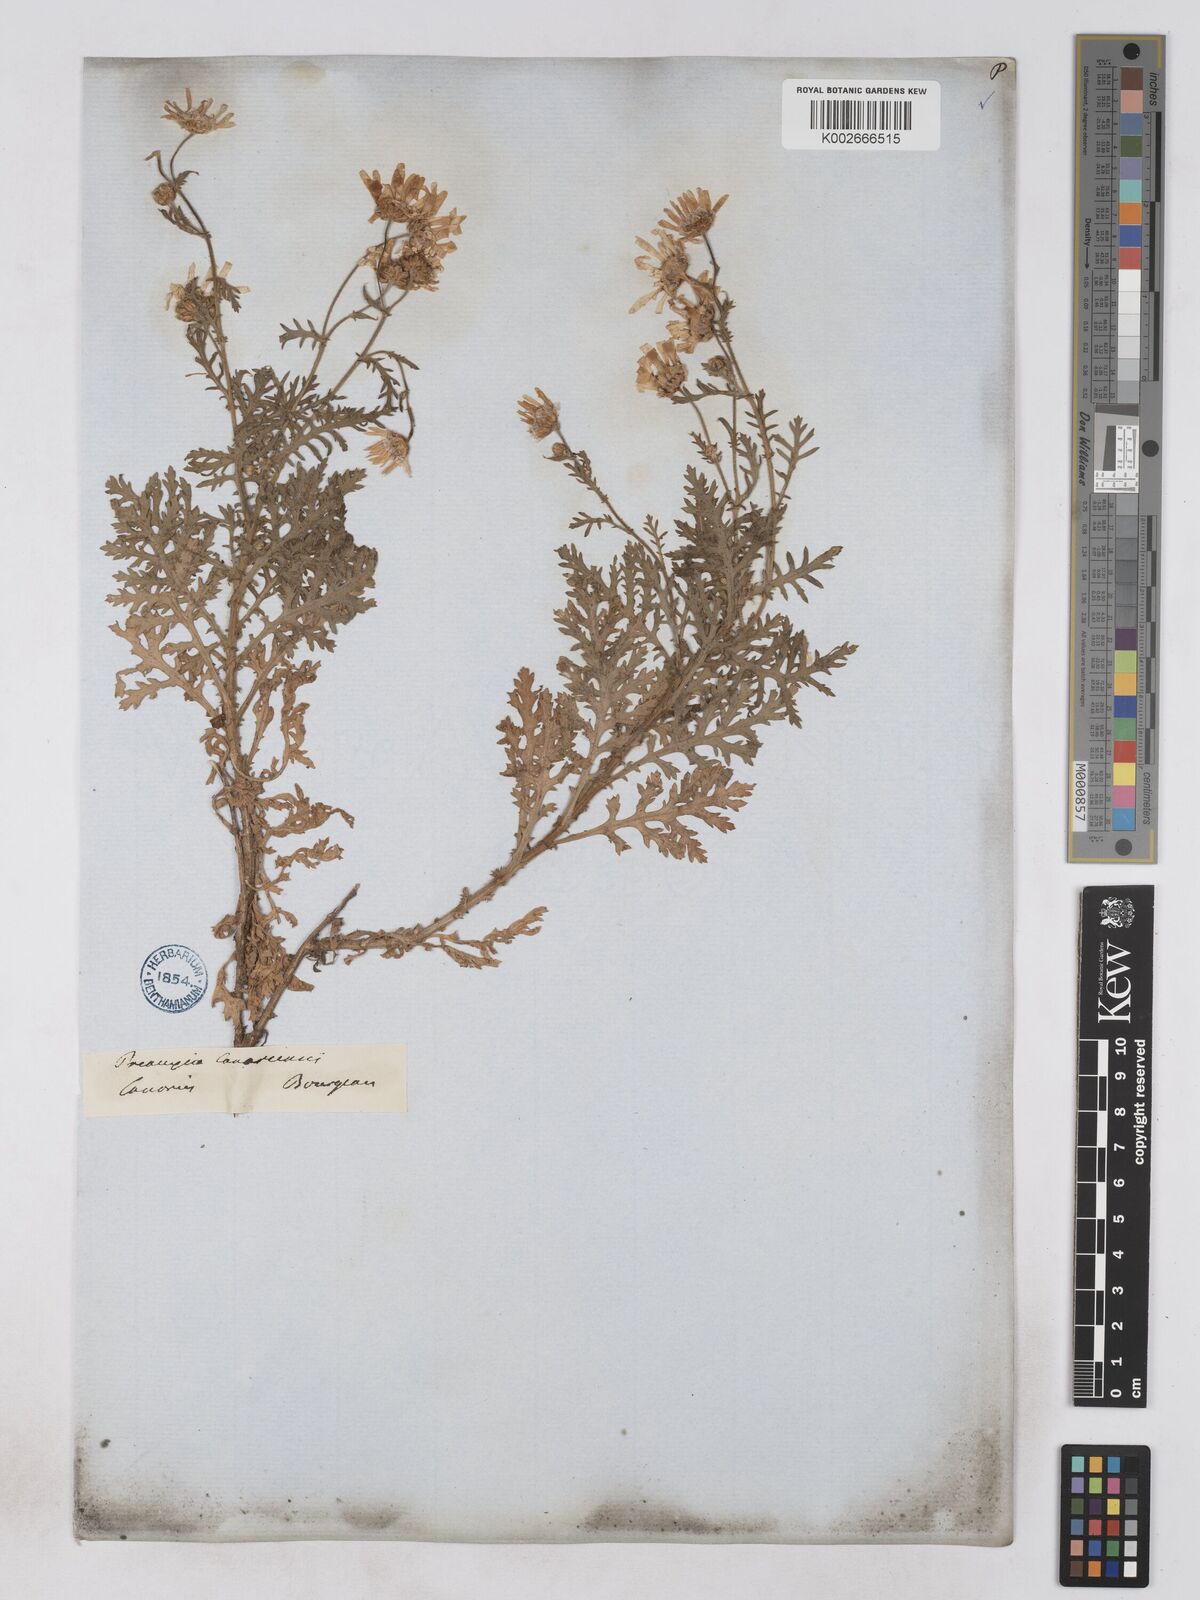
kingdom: Plantae
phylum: Tracheophyta
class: Magnoliopsida
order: Asterales
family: Asteraceae
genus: Argyranthemum
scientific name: Argyranthemum adauctum
